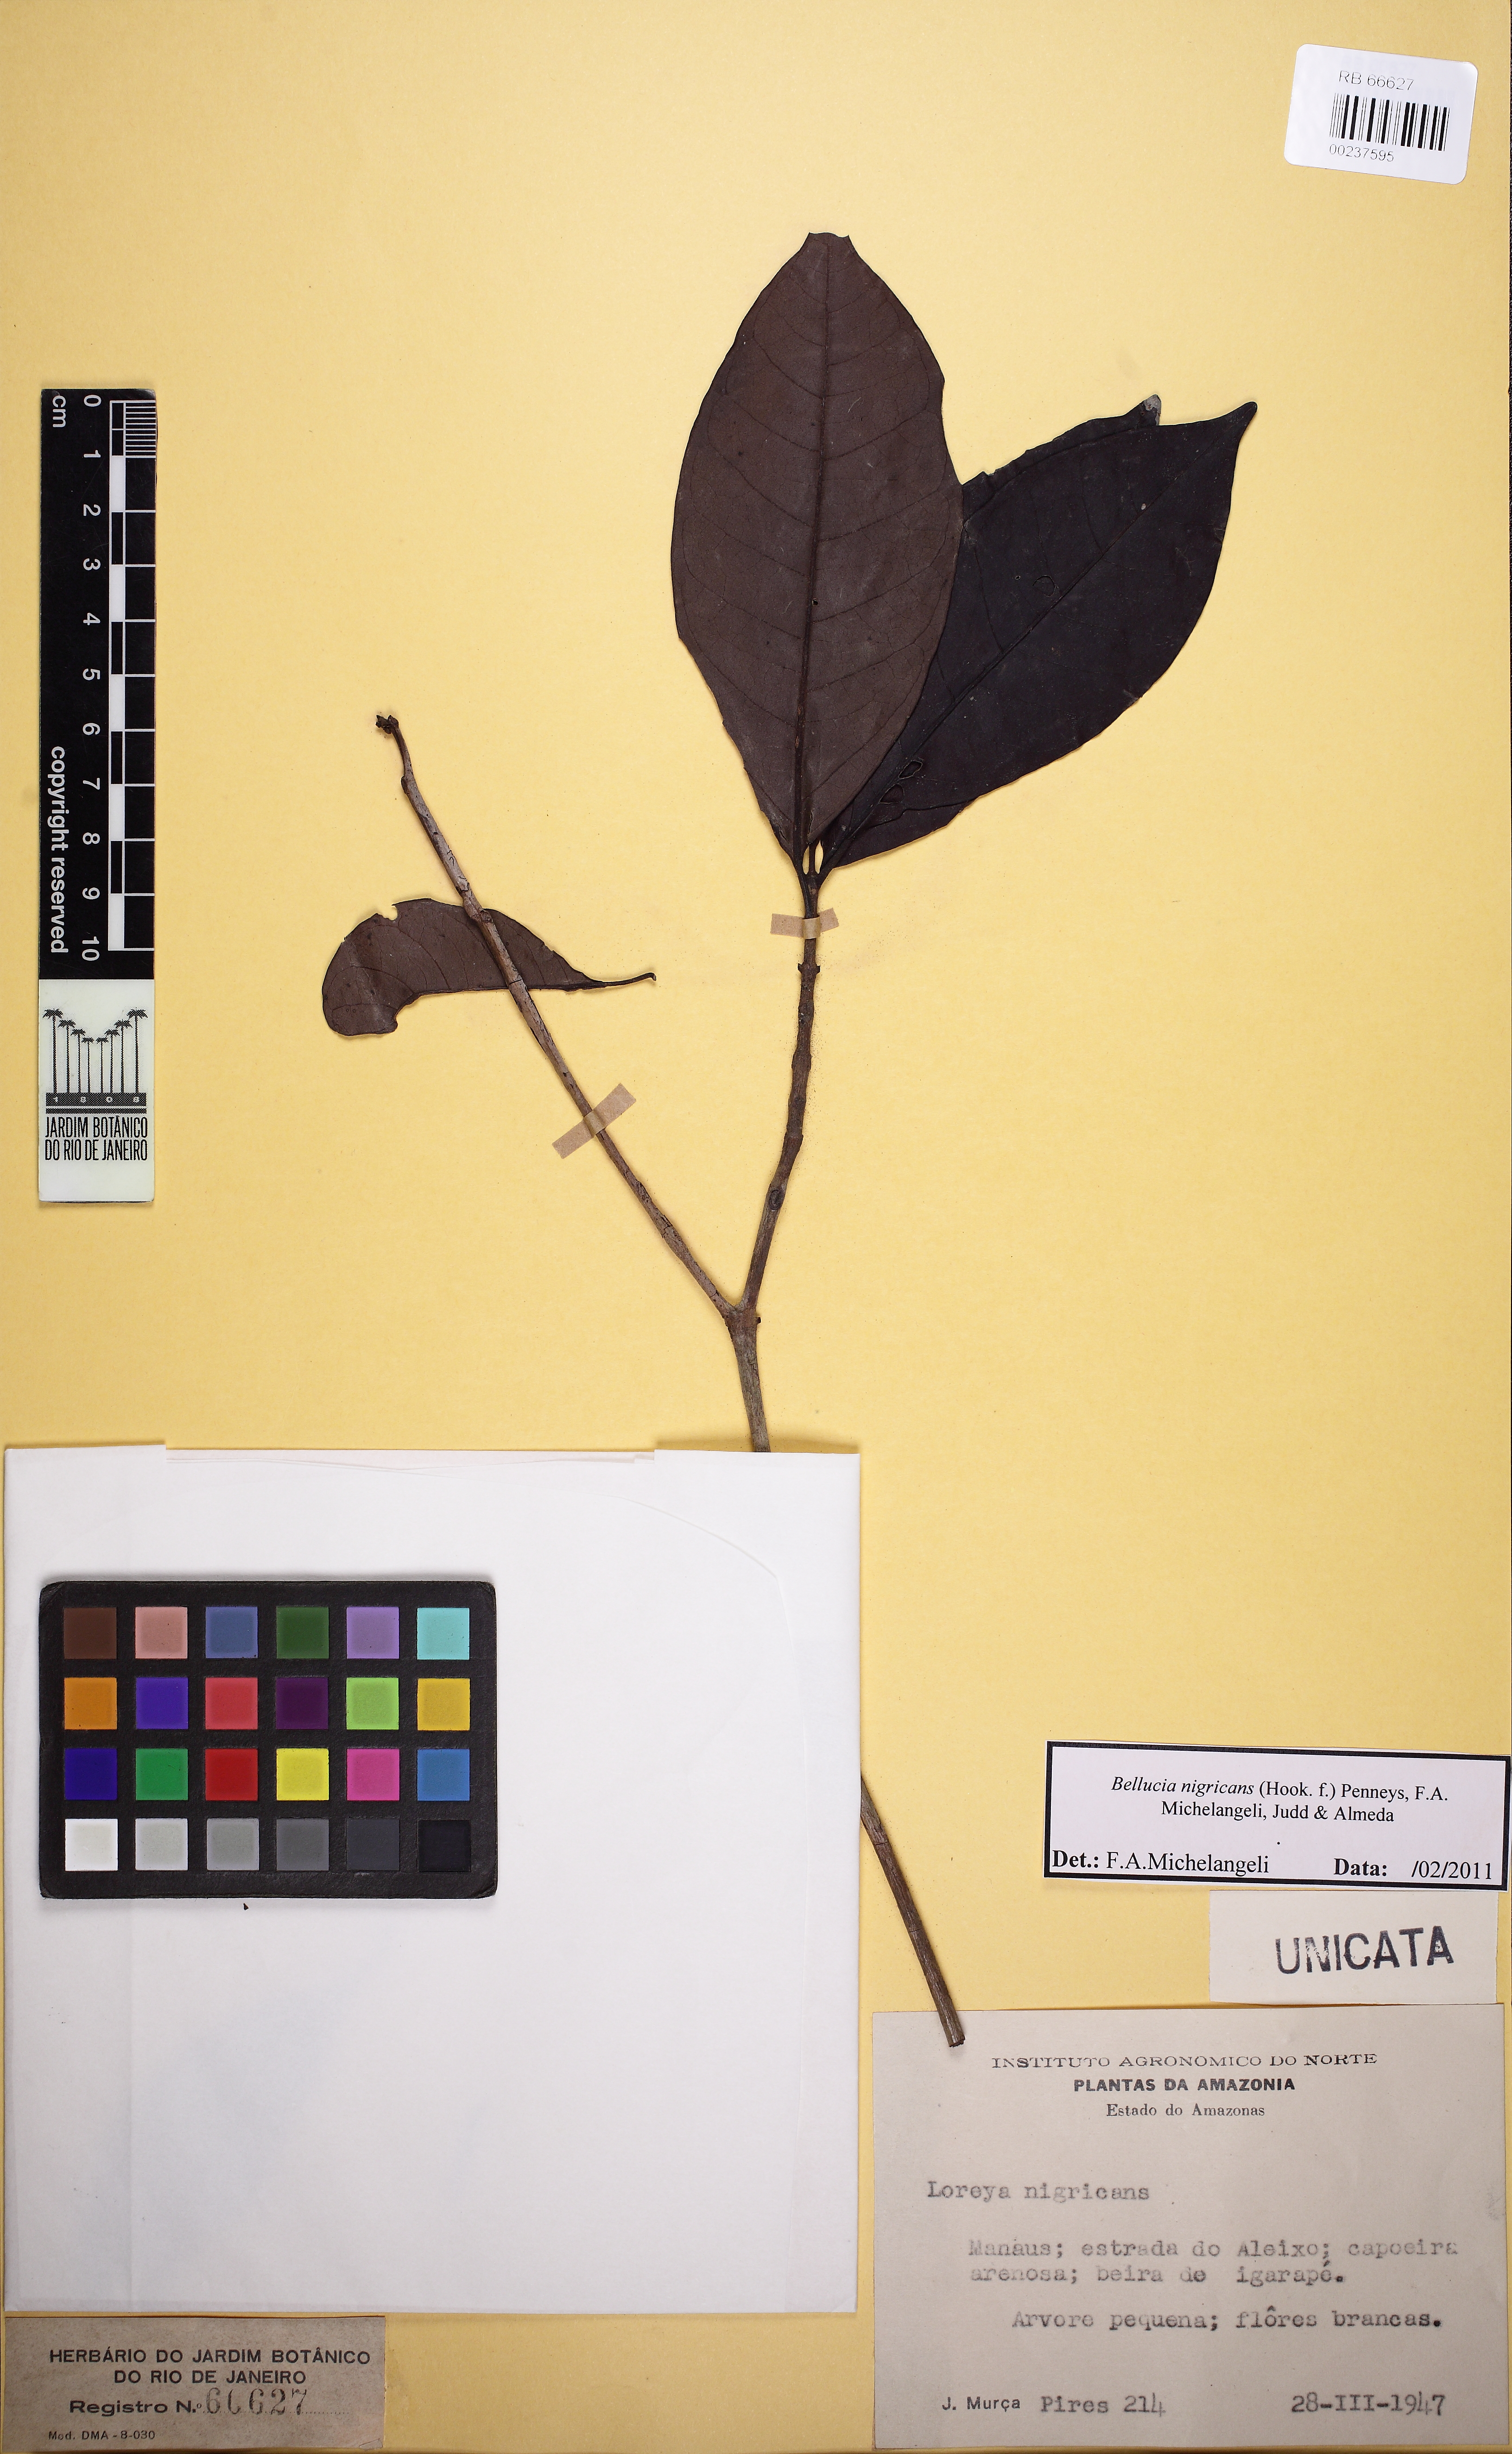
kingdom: Plantae
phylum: Tracheophyta
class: Magnoliopsida
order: Myrtales
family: Melastomataceae
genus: Bellucia
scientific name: Bellucia nigricans
